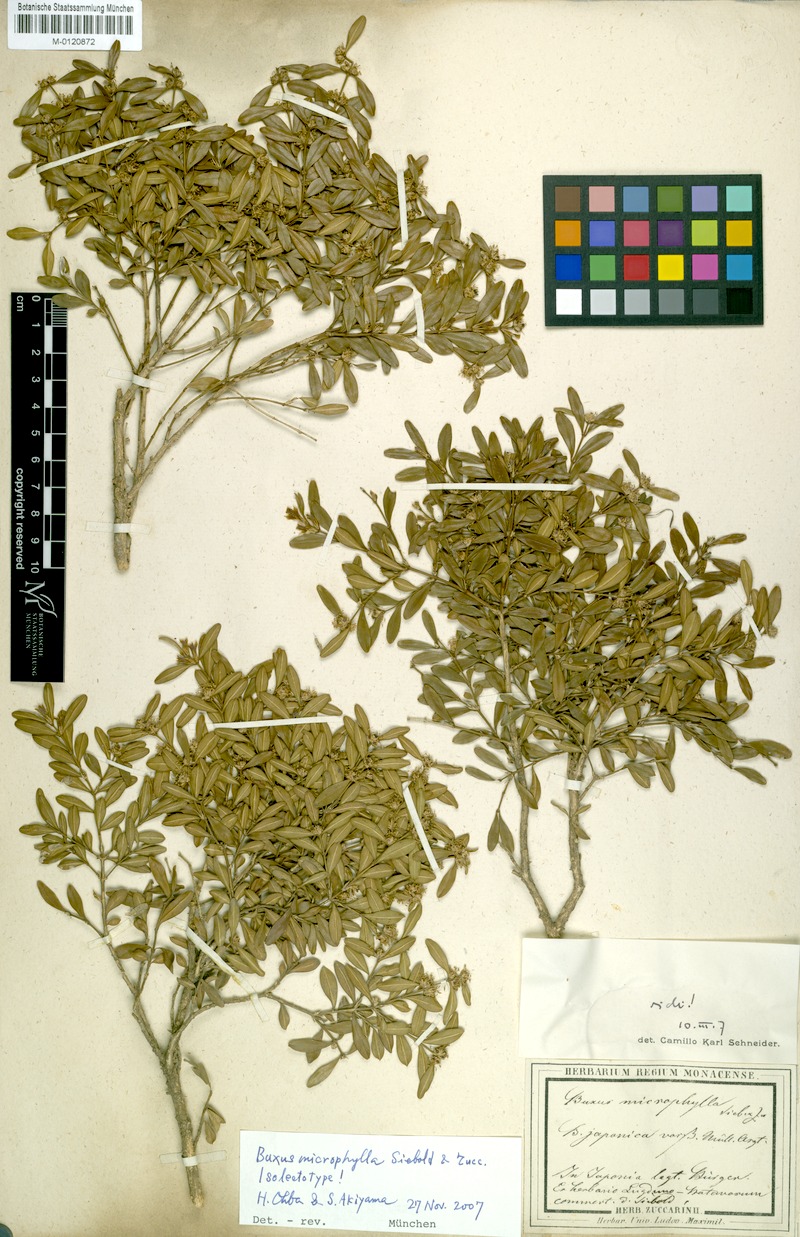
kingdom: Plantae
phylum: Tracheophyta
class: Magnoliopsida
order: Buxales
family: Buxaceae
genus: Buxus
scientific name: Buxus microphylla
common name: Littleleaf boxwood
